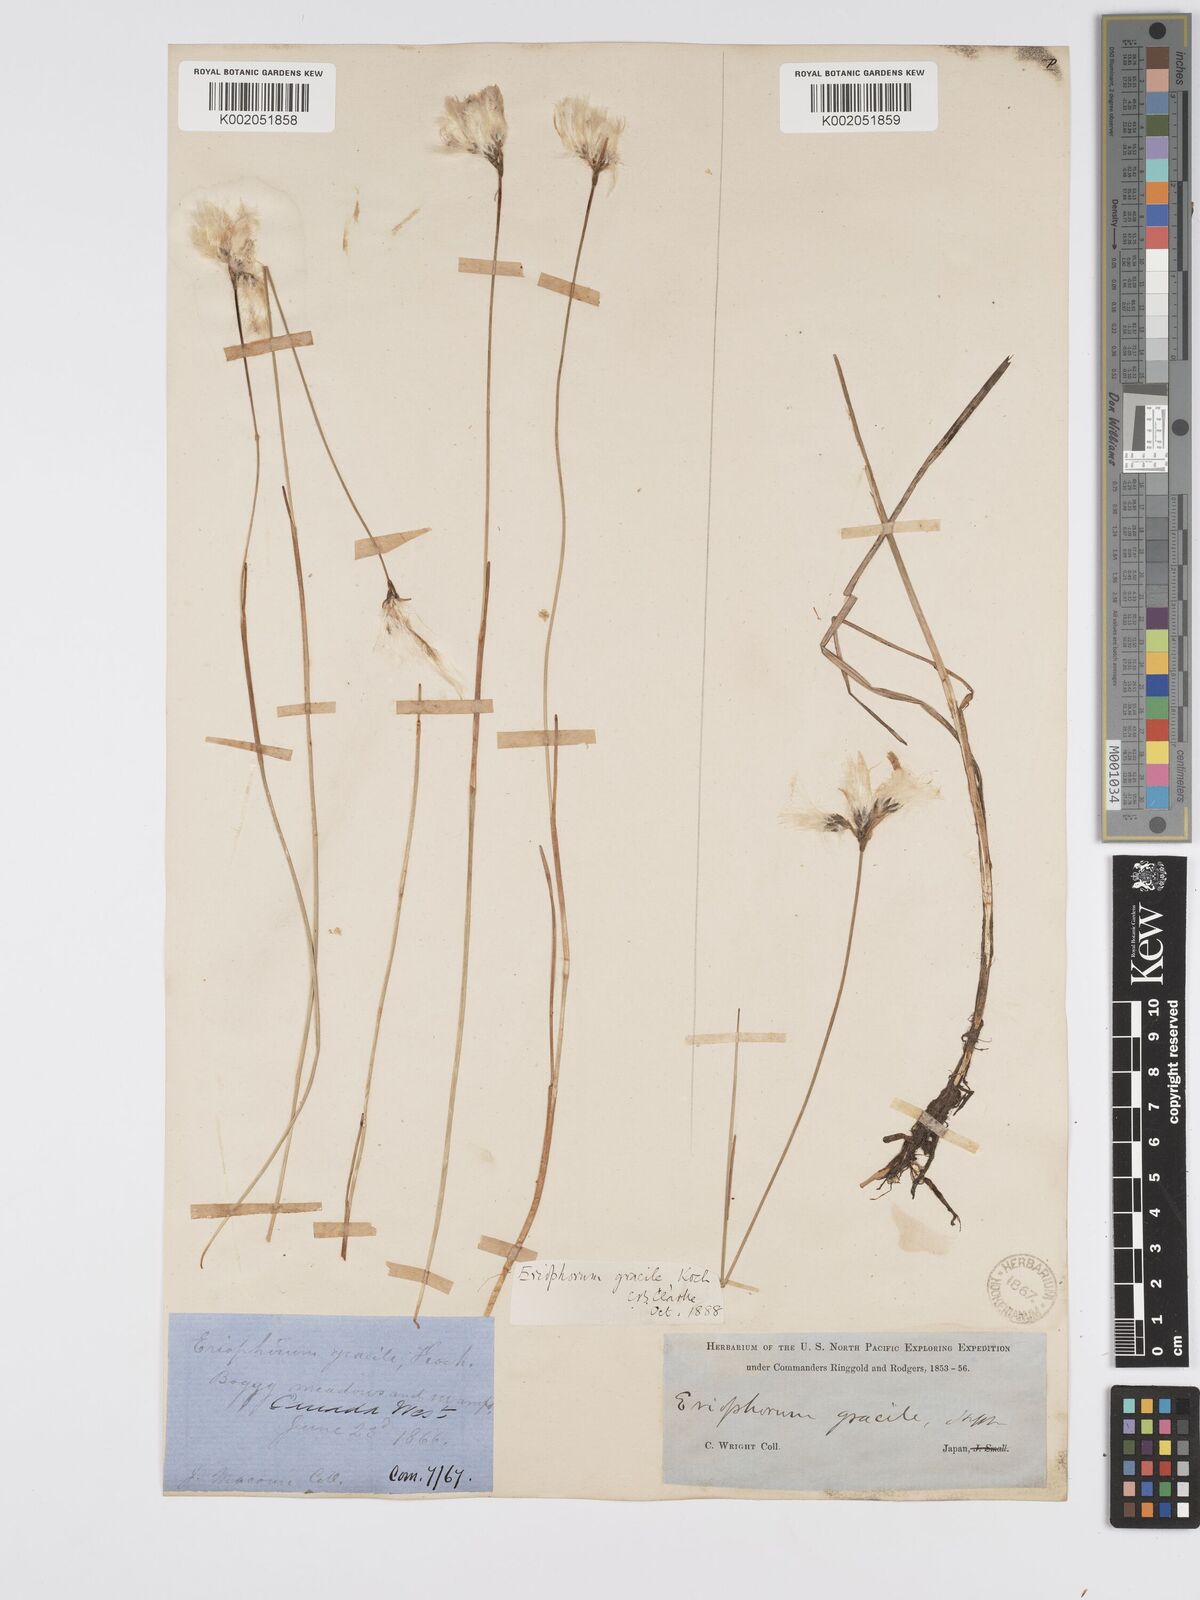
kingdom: Plantae
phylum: Tracheophyta
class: Liliopsida
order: Poales
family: Cyperaceae
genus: Eriophorum
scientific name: Eriophorum gracile
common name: Slender cottongrass
